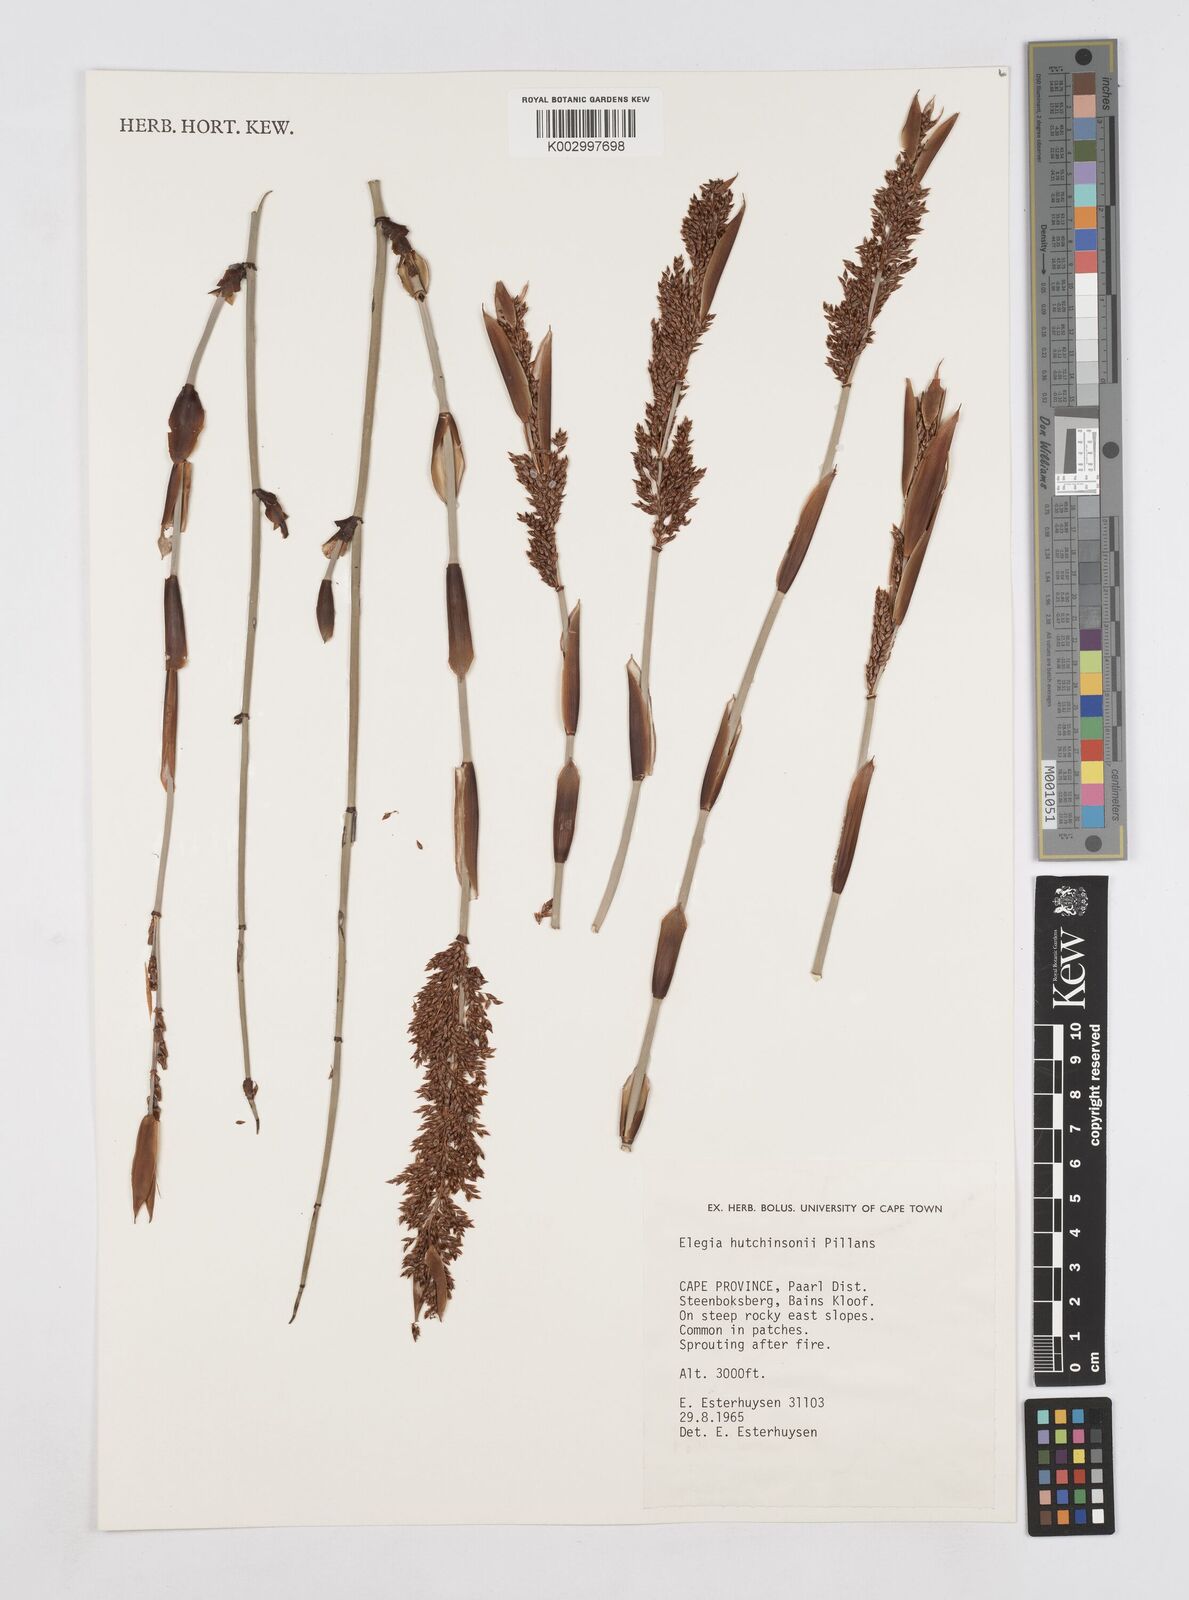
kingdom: Plantae
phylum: Tracheophyta
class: Liliopsida
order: Poales
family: Restionaceae
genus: Elegia
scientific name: Elegia hutchinsonii
